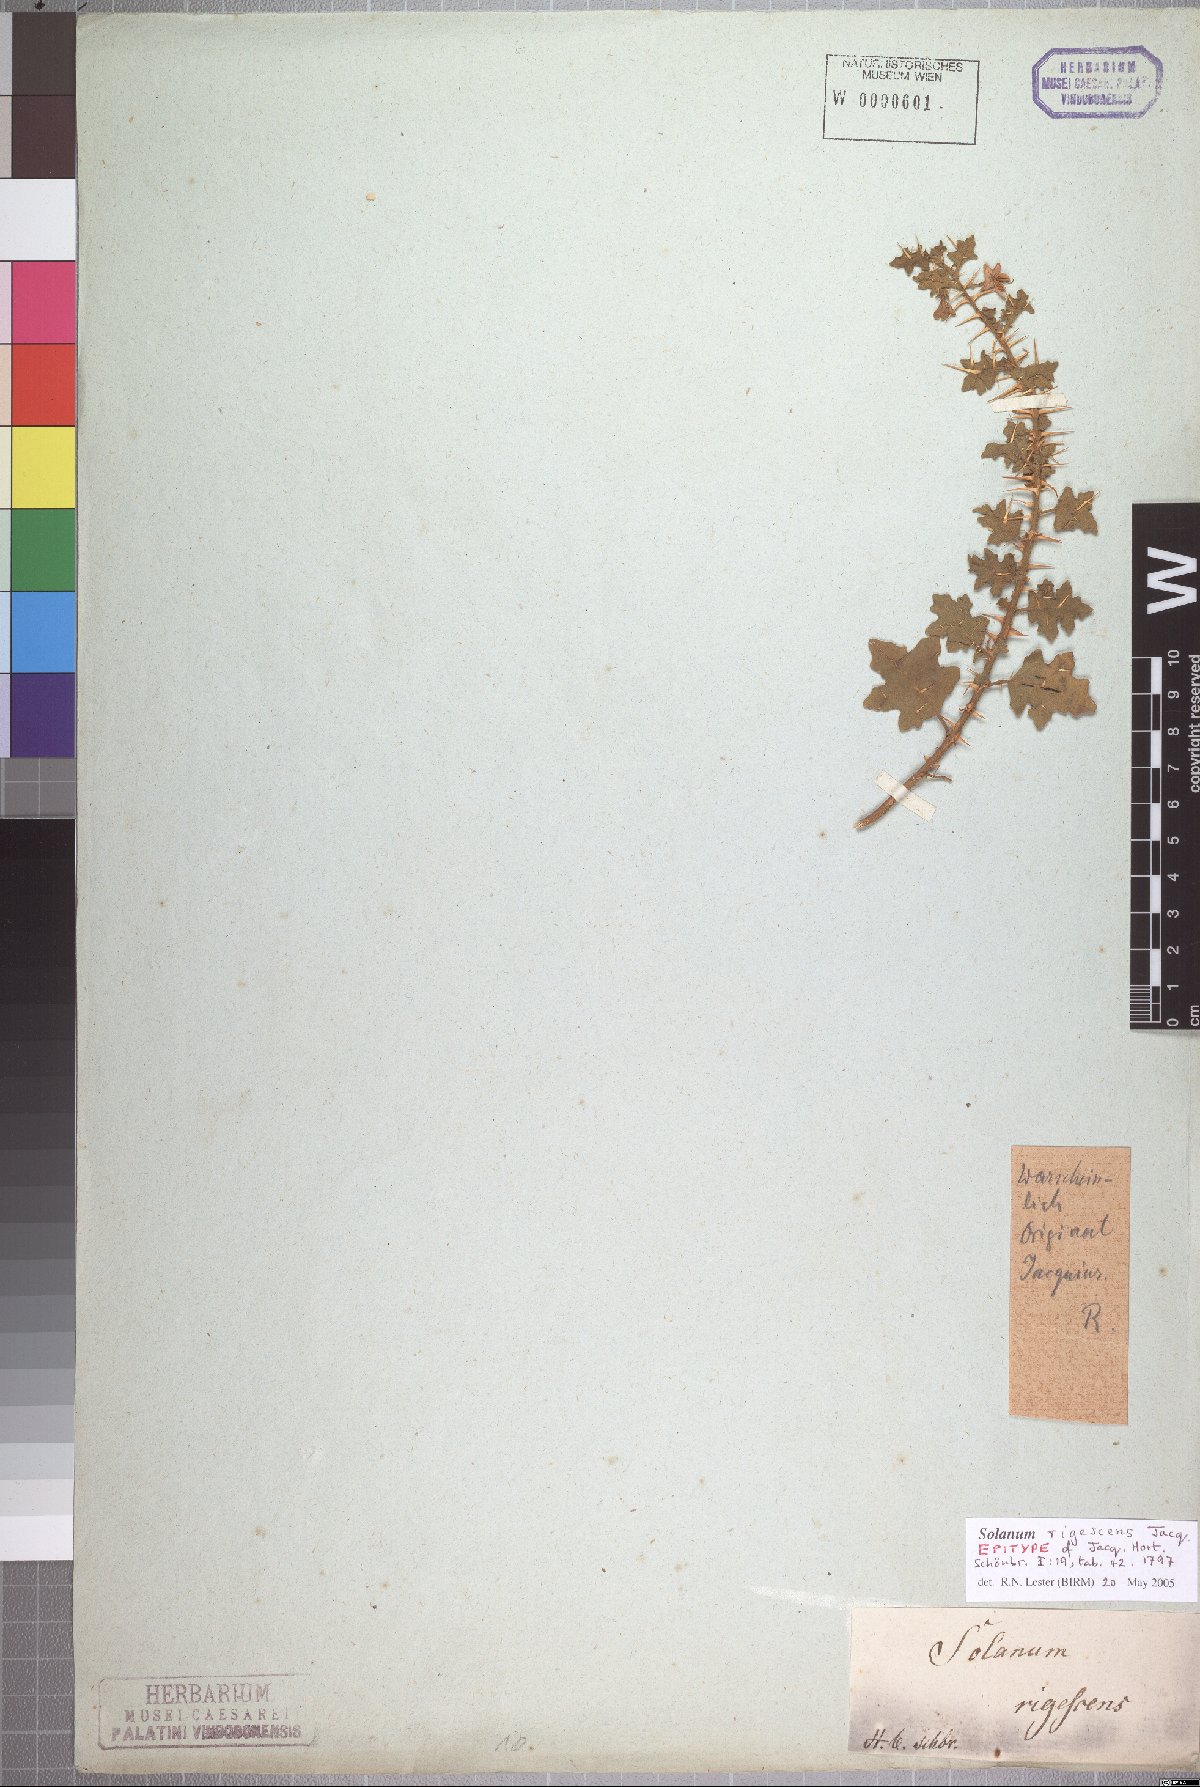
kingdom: Plantae
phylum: Tracheophyta
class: Magnoliopsida
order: Solanales
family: Solanaceae
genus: Solanum
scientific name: Solanum humile
